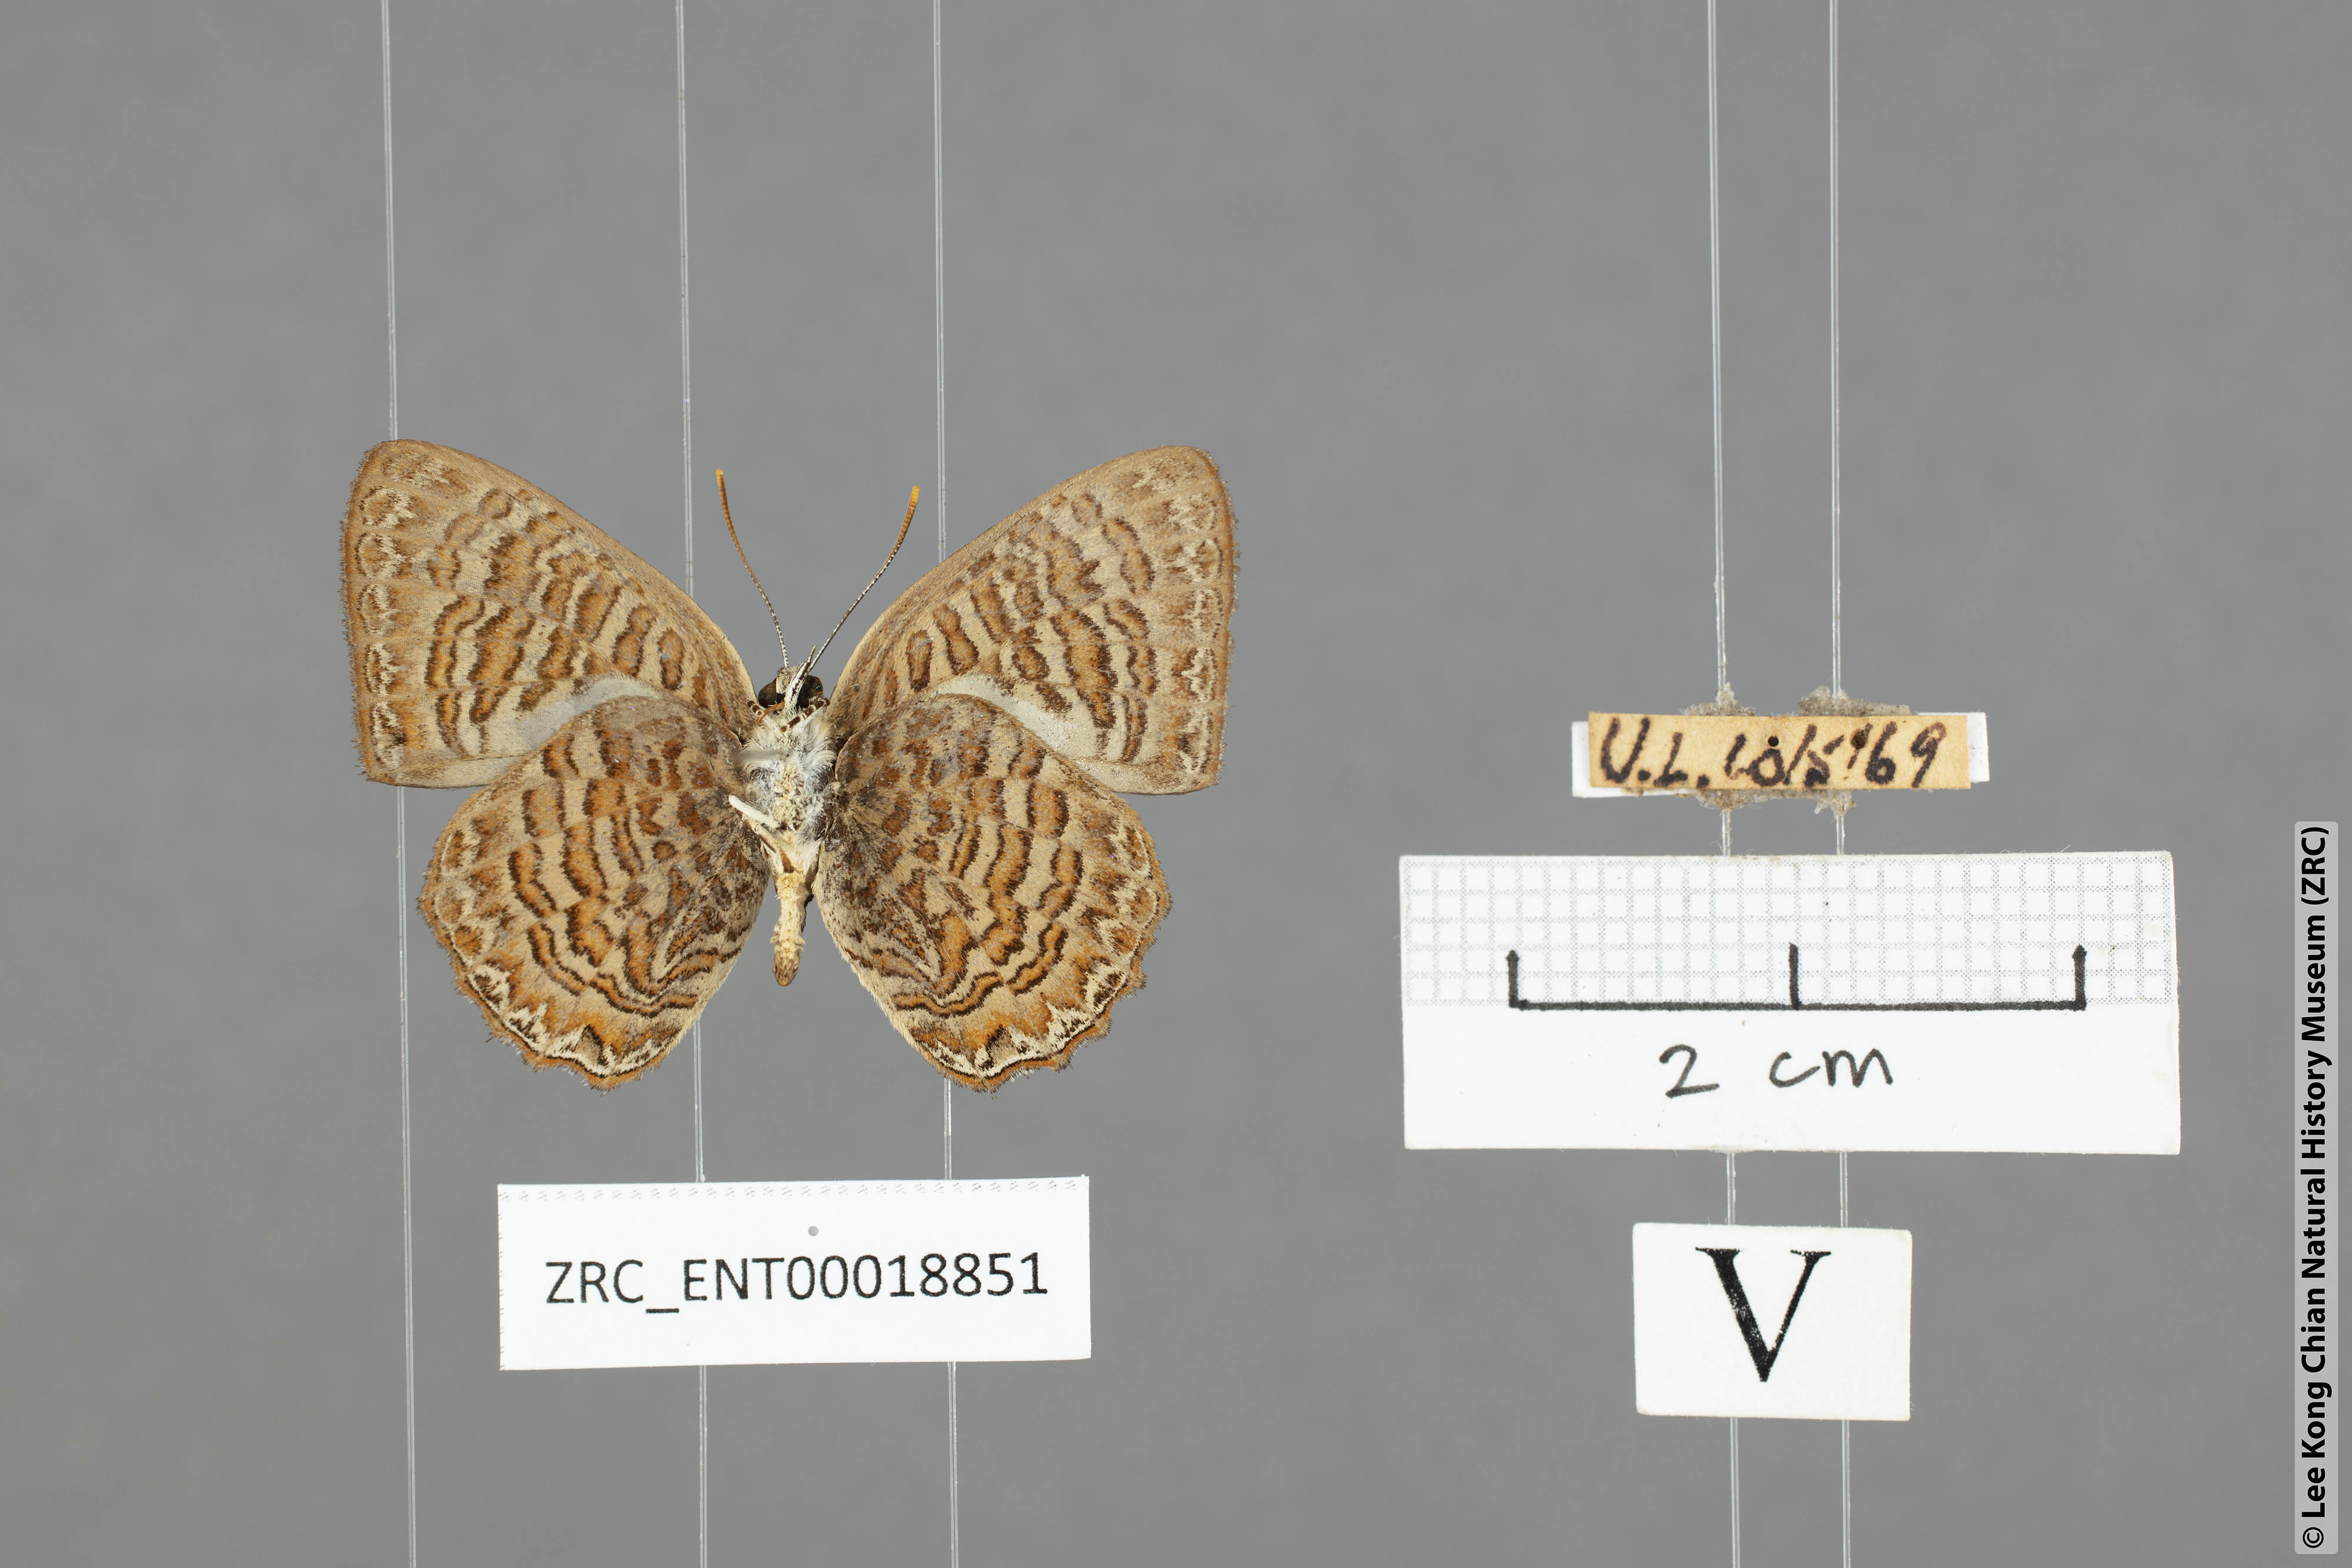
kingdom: Animalia
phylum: Arthropoda
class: Insecta
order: Lepidoptera
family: Lycaenidae
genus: Poritia
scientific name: Poritia sumatrae
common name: Sumatran gem
